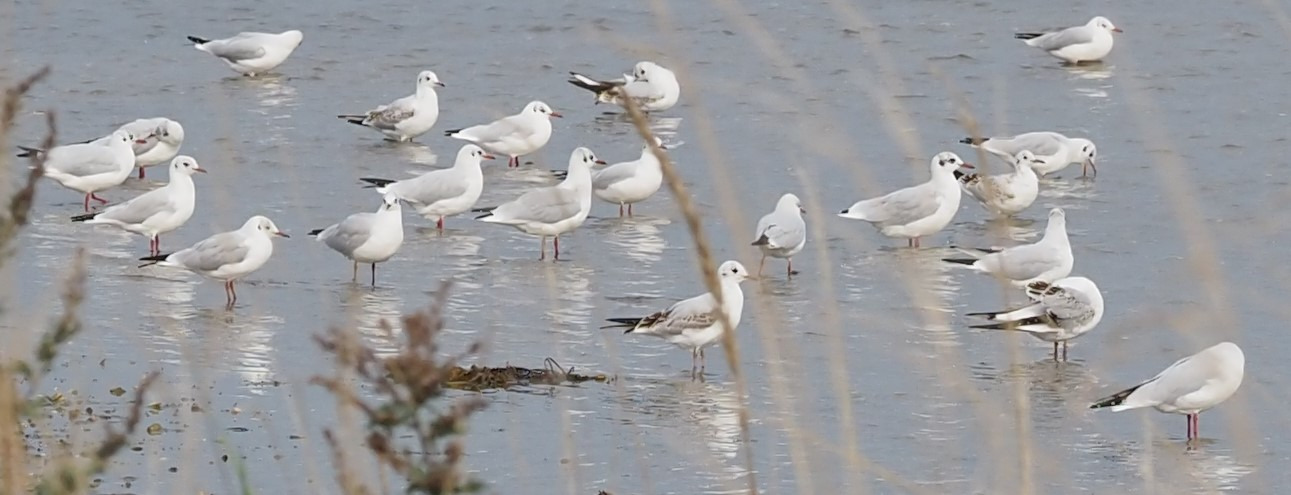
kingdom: Animalia
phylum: Chordata
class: Aves
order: Charadriiformes
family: Laridae
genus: Chroicocephalus
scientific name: Chroicocephalus ridibundus
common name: Hættemåge
